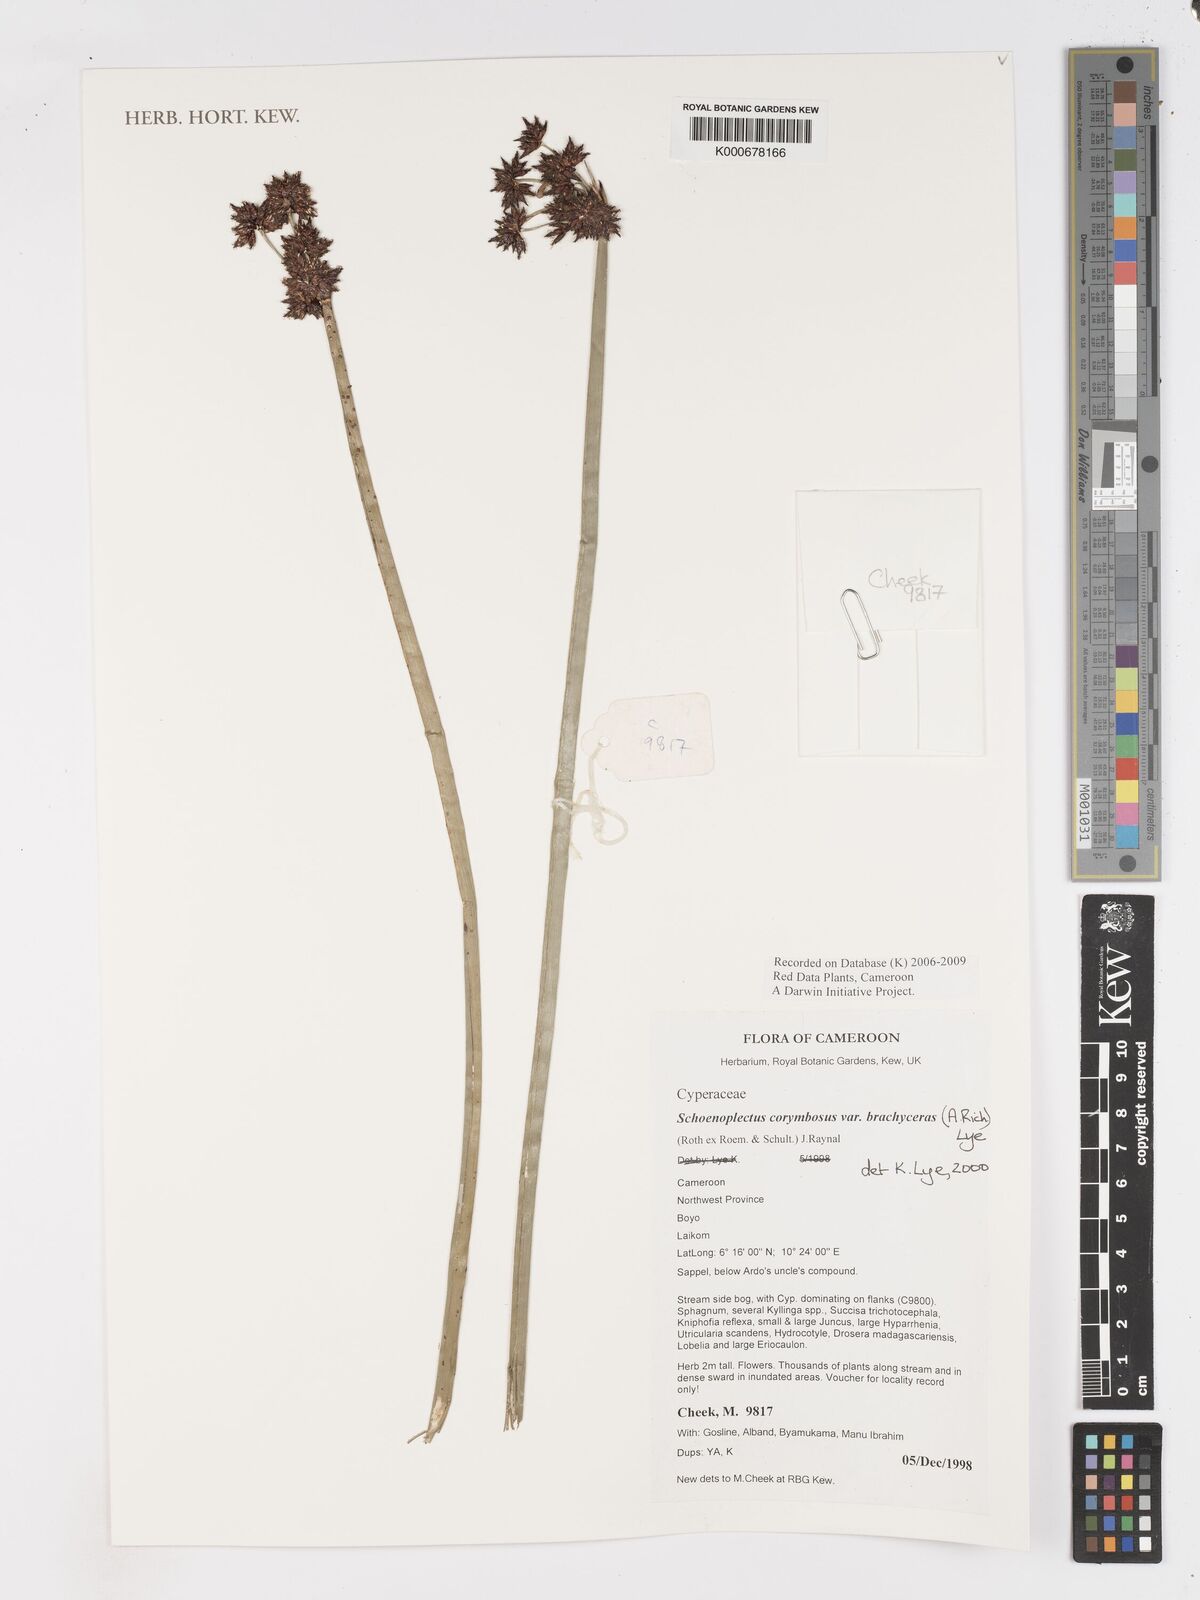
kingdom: Plantae
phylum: Tracheophyta
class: Liliopsida
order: Poales
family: Cyperaceae
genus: Schoenoplectiella
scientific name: Schoenoplectiella brachyceras
